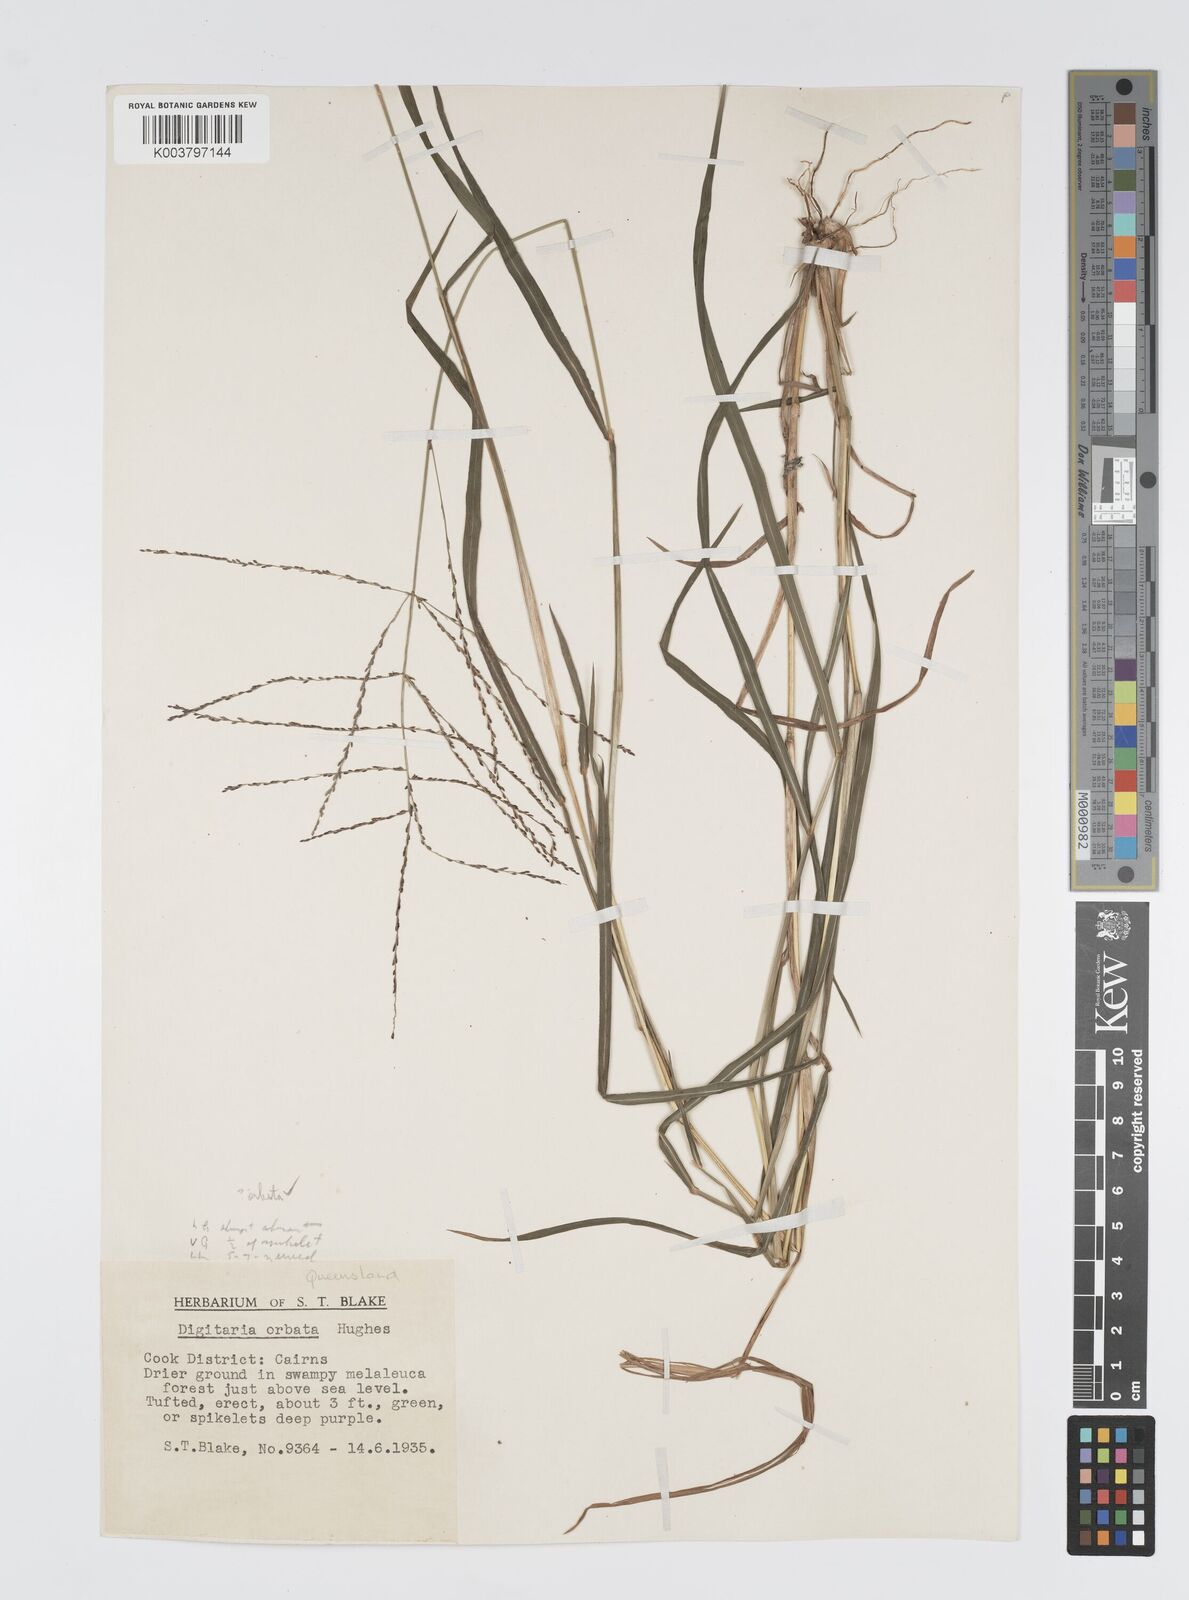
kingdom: Plantae
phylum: Tracheophyta
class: Liliopsida
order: Poales
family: Poaceae
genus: Digitaria
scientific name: Digitaria spec
